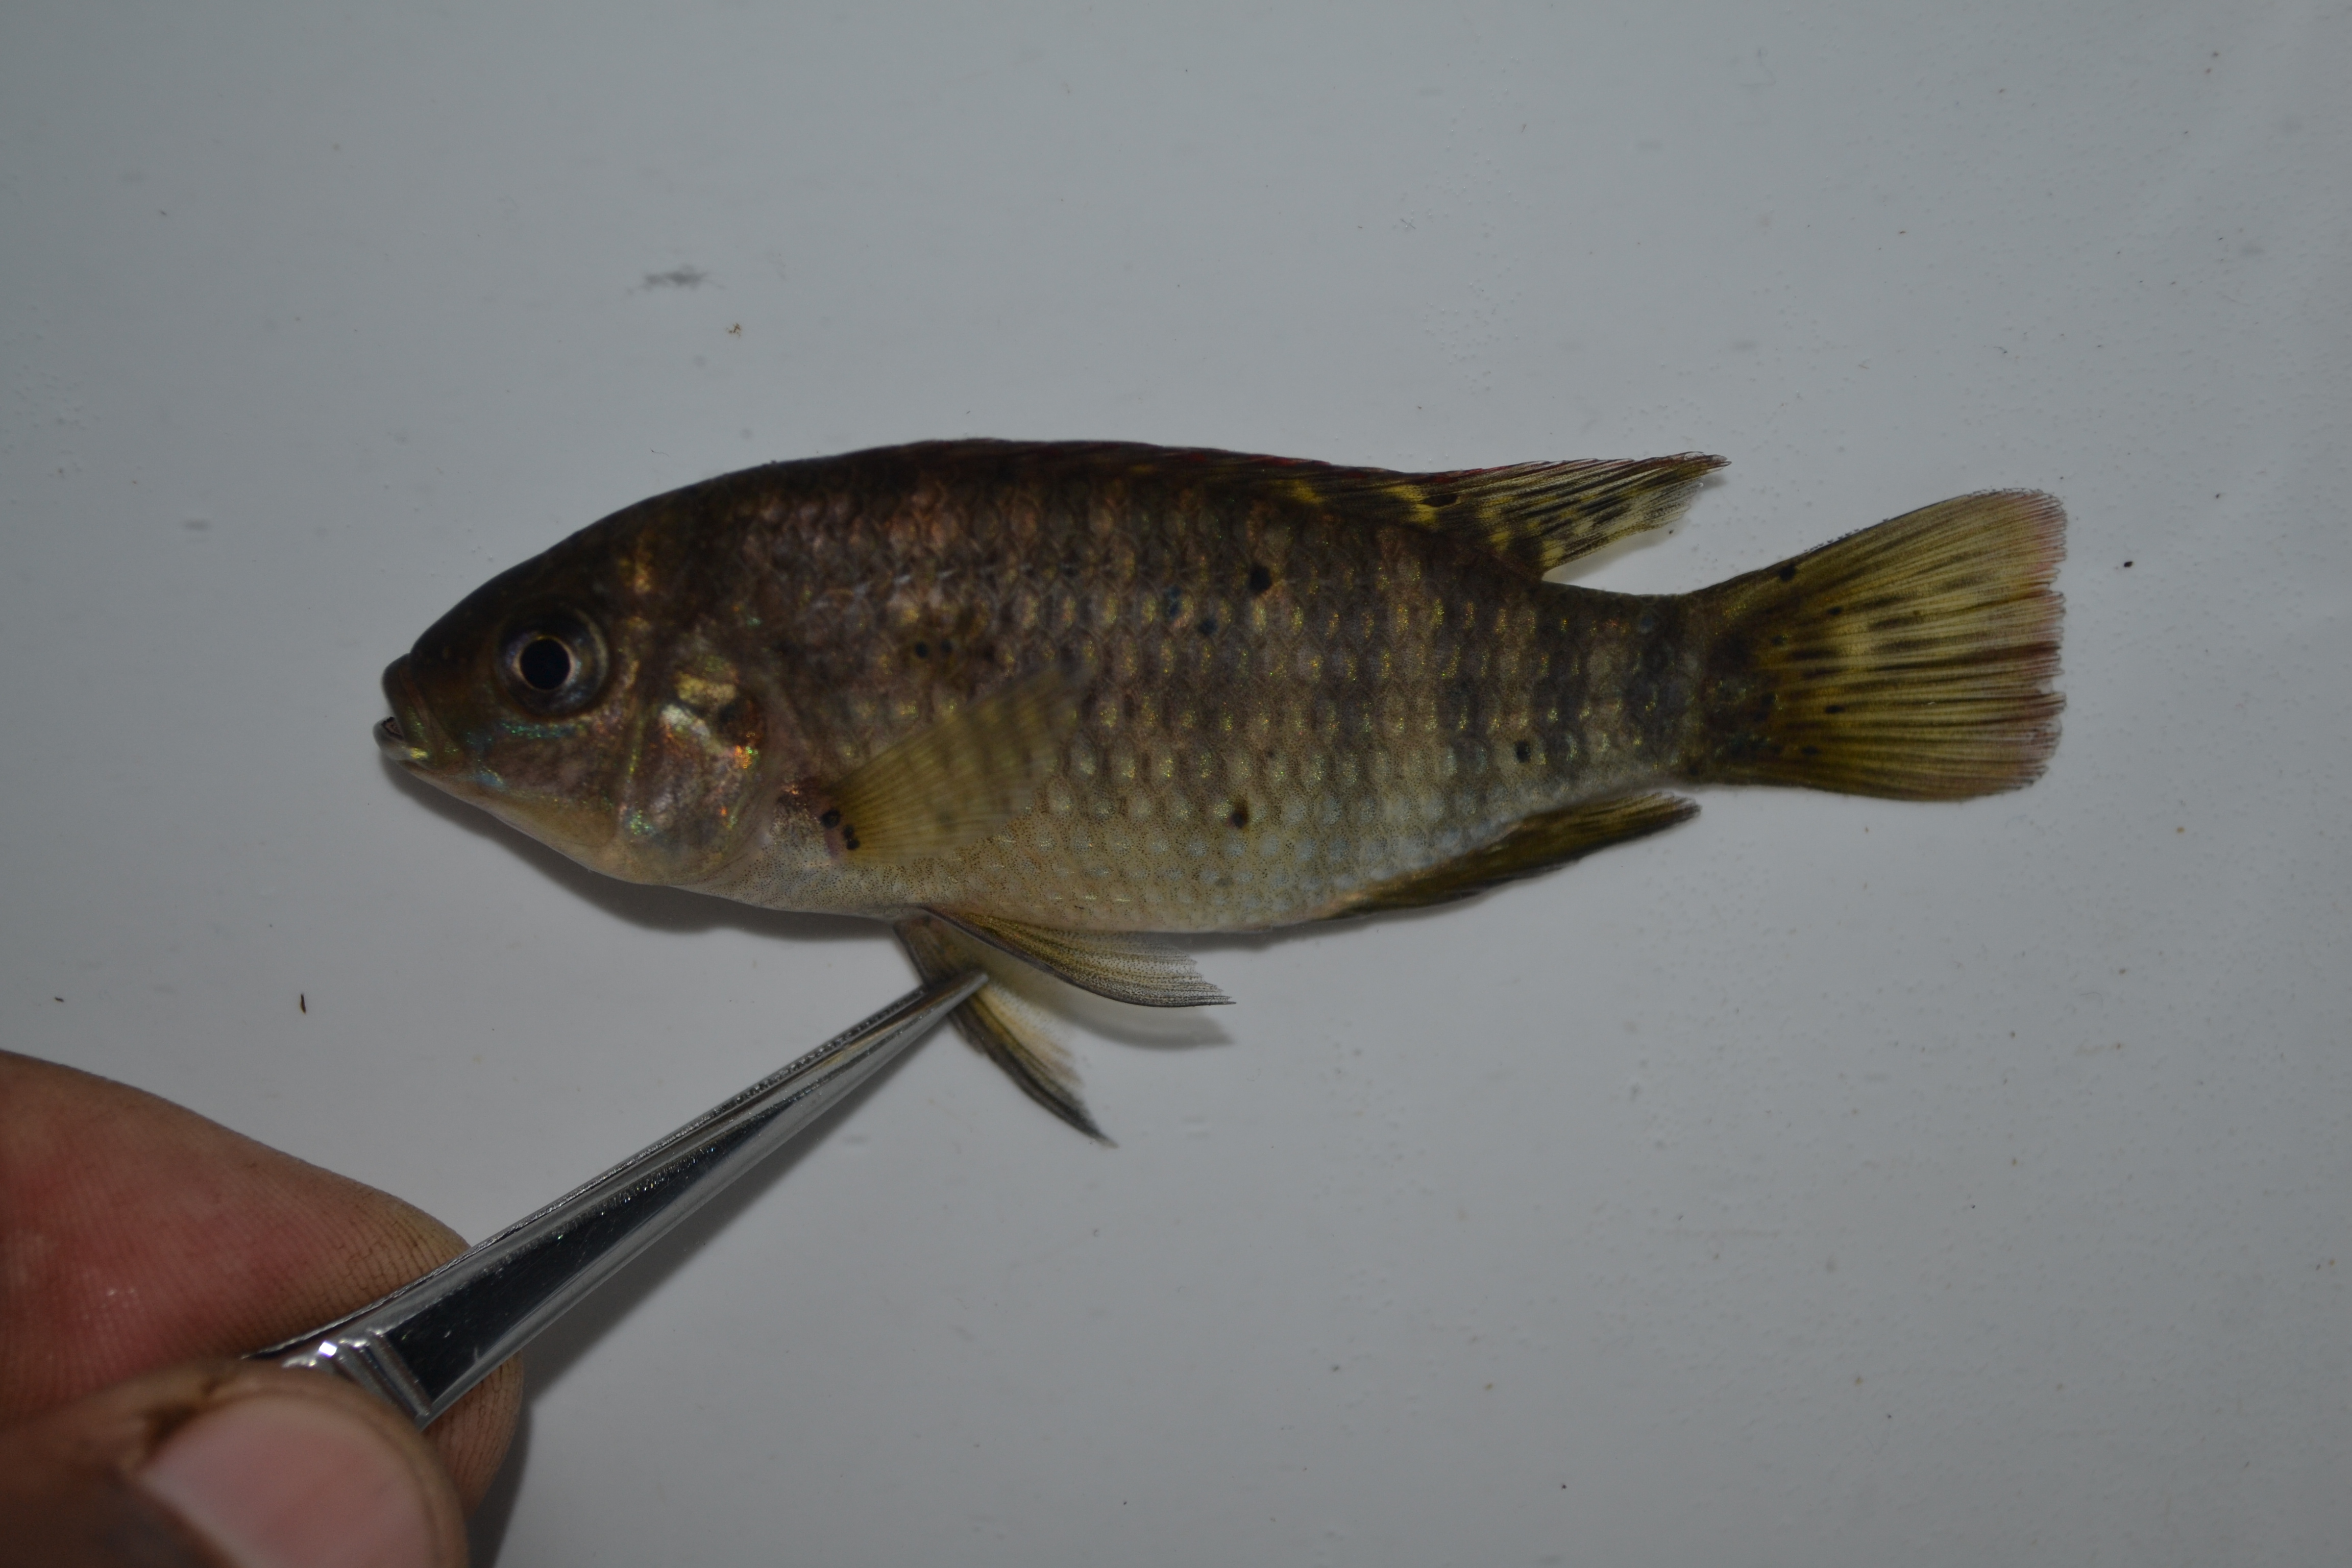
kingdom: Animalia
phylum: Chordata
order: Perciformes
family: Cichlidae
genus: Tilapia
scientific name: Tilapia sparrmanii
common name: Banded tilapia
